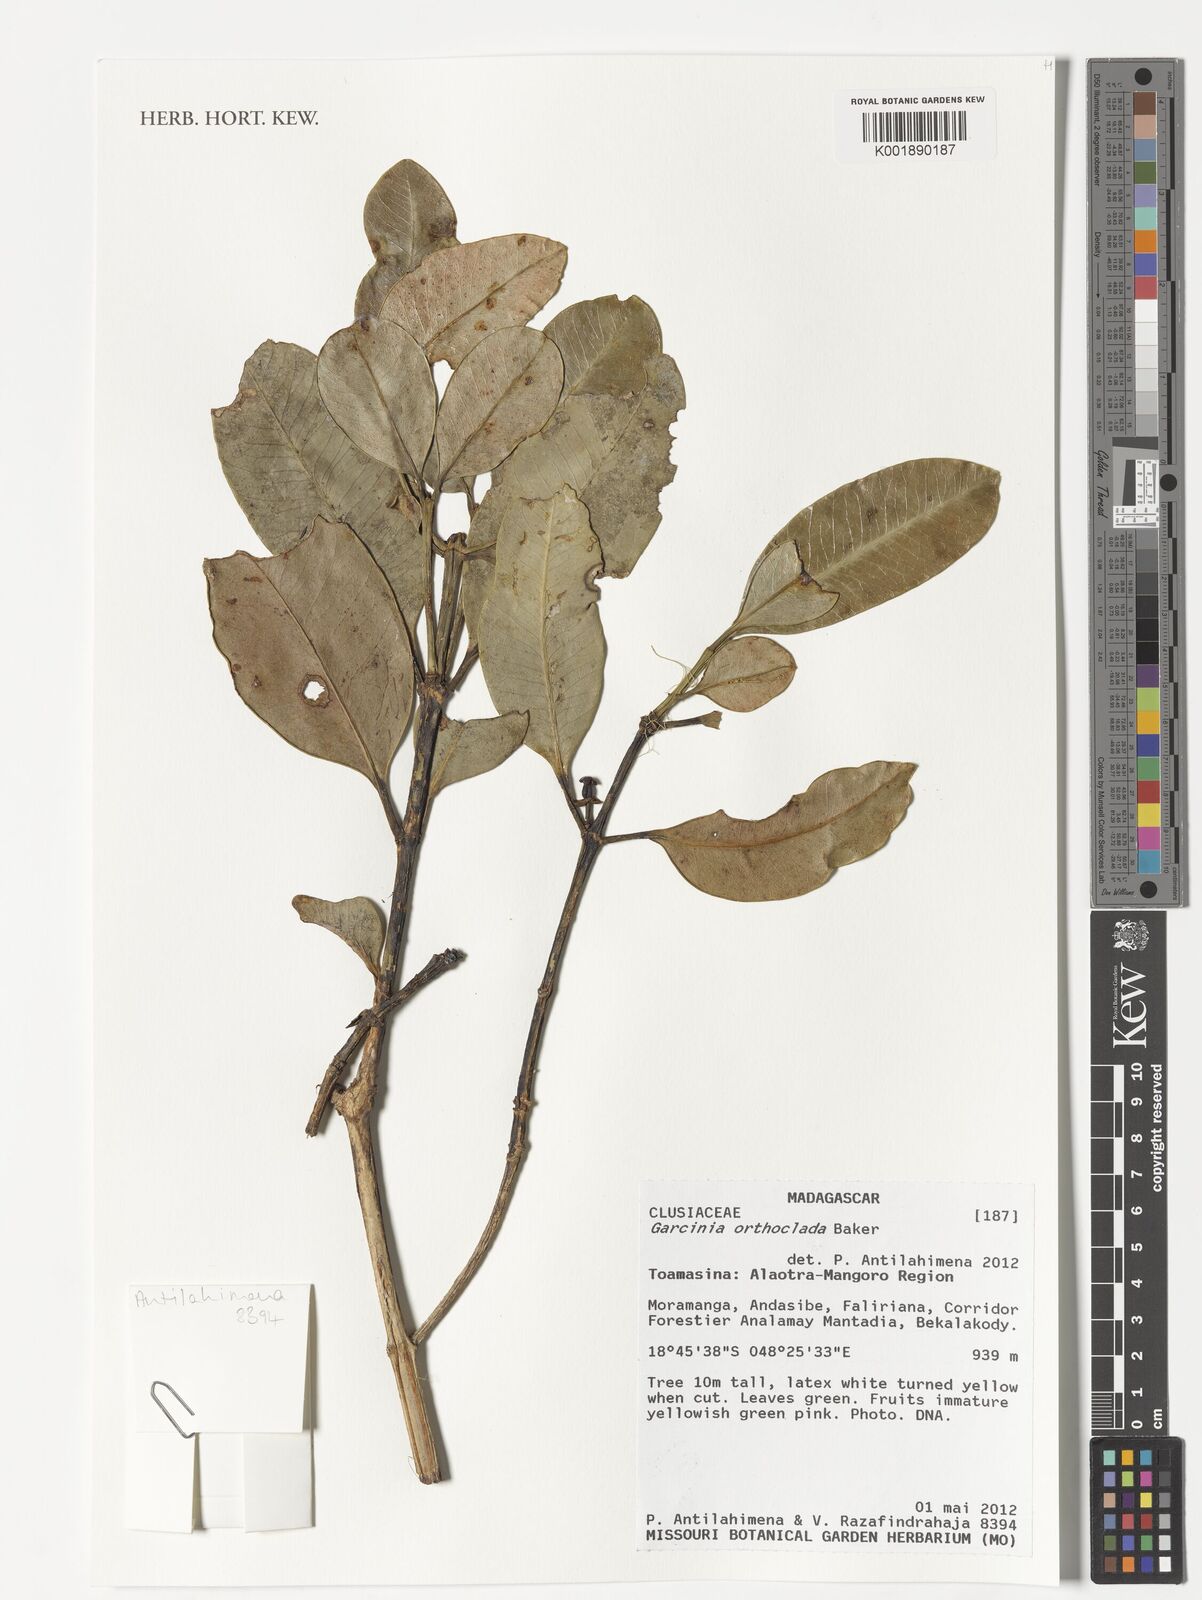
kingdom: Plantae
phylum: Tracheophyta
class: Magnoliopsida
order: Malpighiales
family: Clusiaceae
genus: Garcinia
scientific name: Garcinia orthoclada
